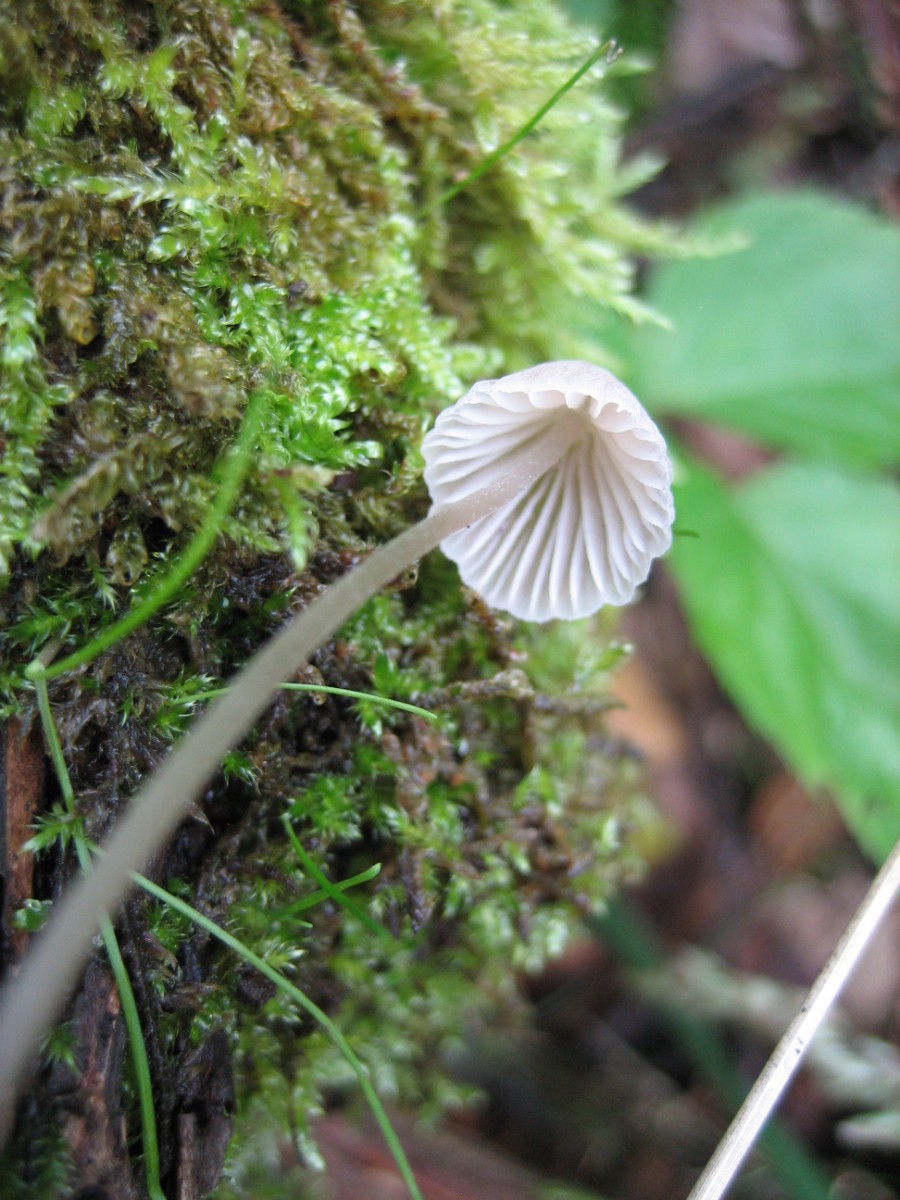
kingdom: Fungi
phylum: Basidiomycota
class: Agaricomycetes
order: Agaricales
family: Mycenaceae
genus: Mycena
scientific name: Mycena
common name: huesvamp
